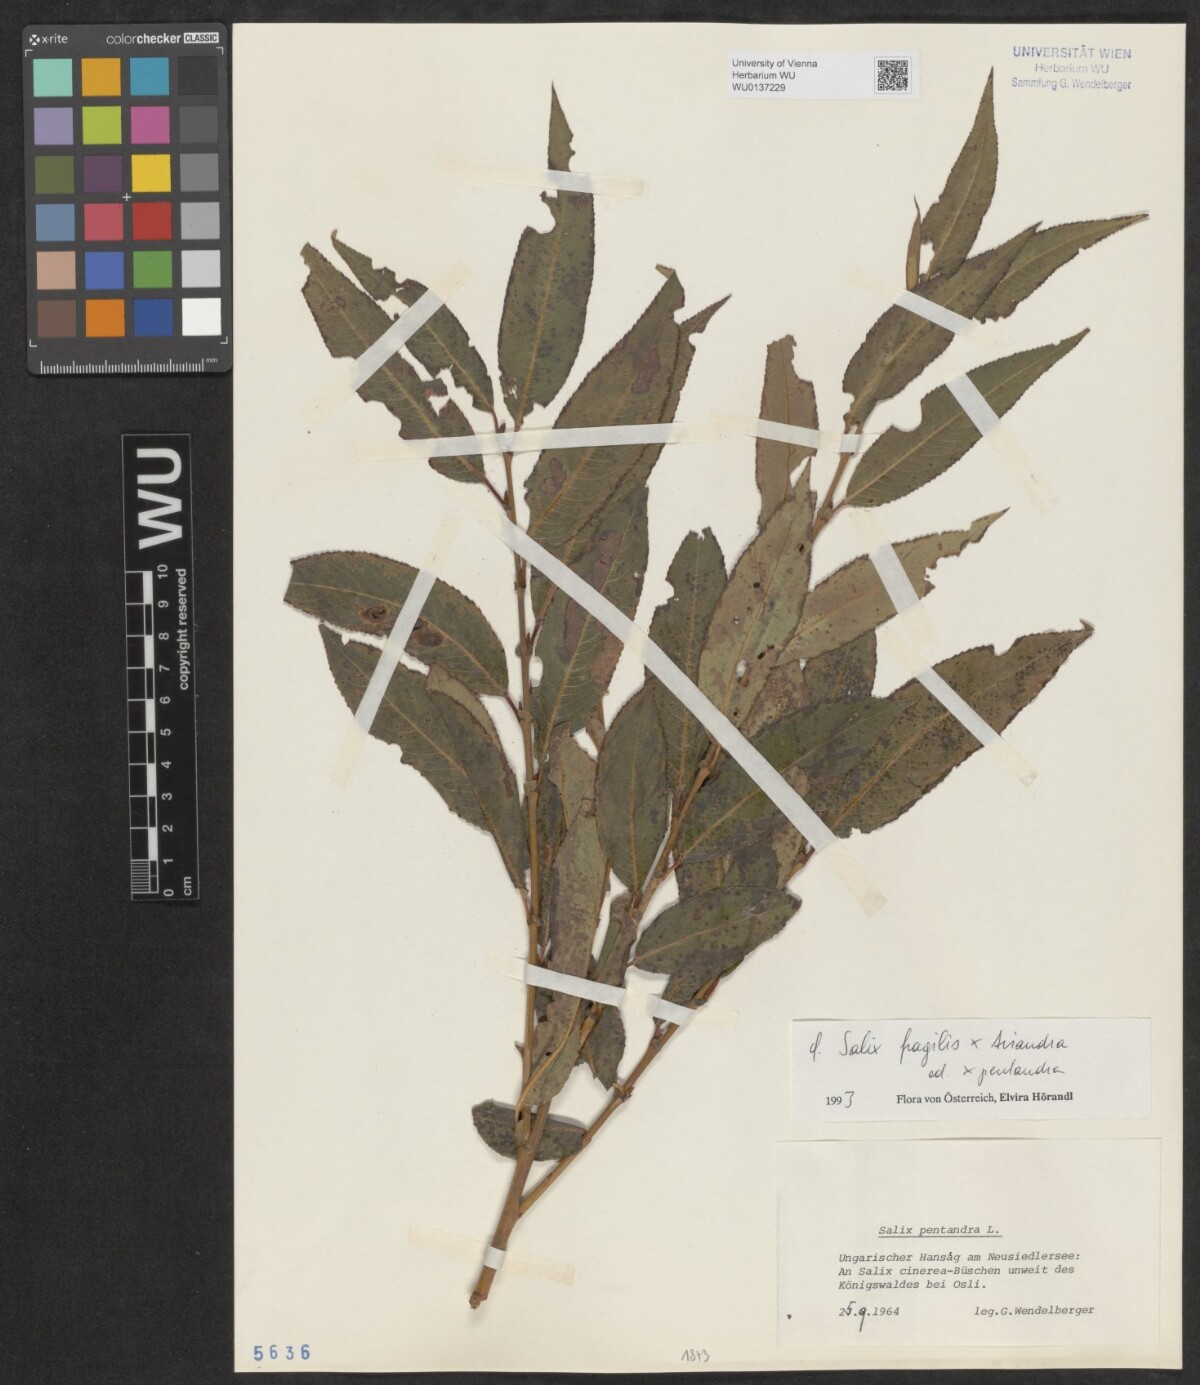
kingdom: Plantae
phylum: Tracheophyta
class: Magnoliopsida
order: Malpighiales
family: Salicaceae
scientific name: Salicaceae
